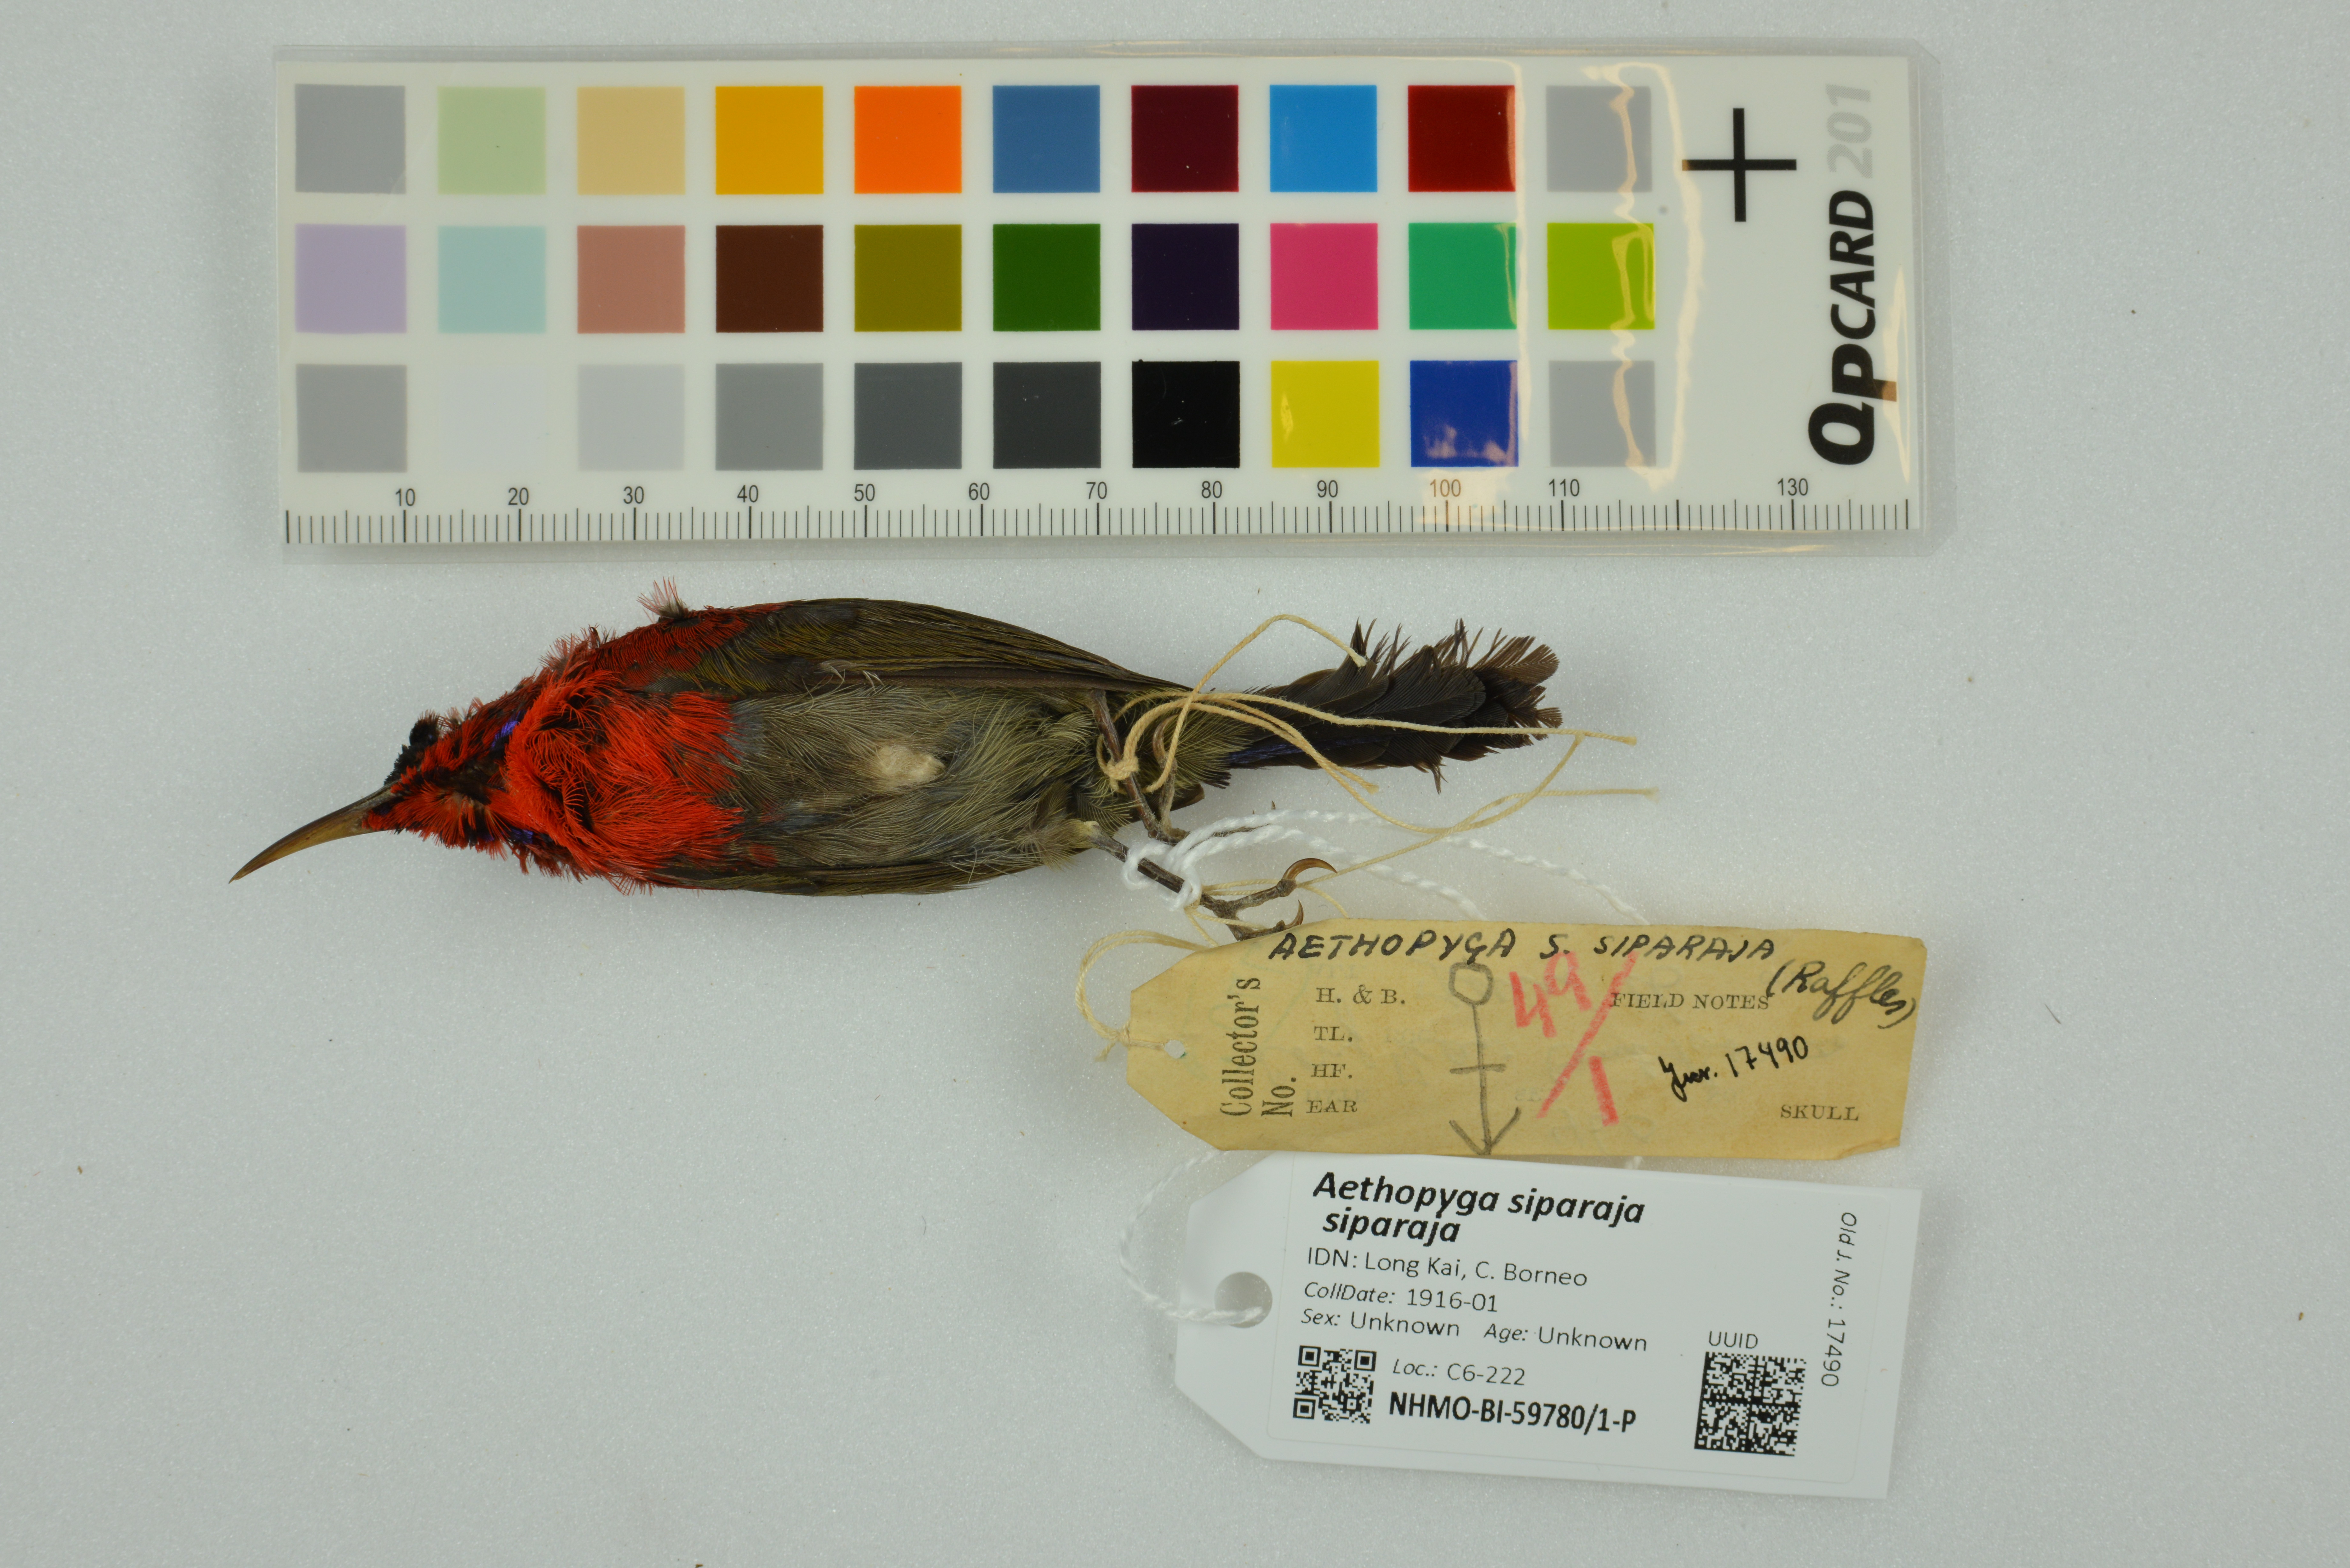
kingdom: Animalia
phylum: Chordata
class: Aves
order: Passeriformes
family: Nectariniidae
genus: Aethopyga
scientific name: Aethopyga siparaja
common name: Crimson sunbird
